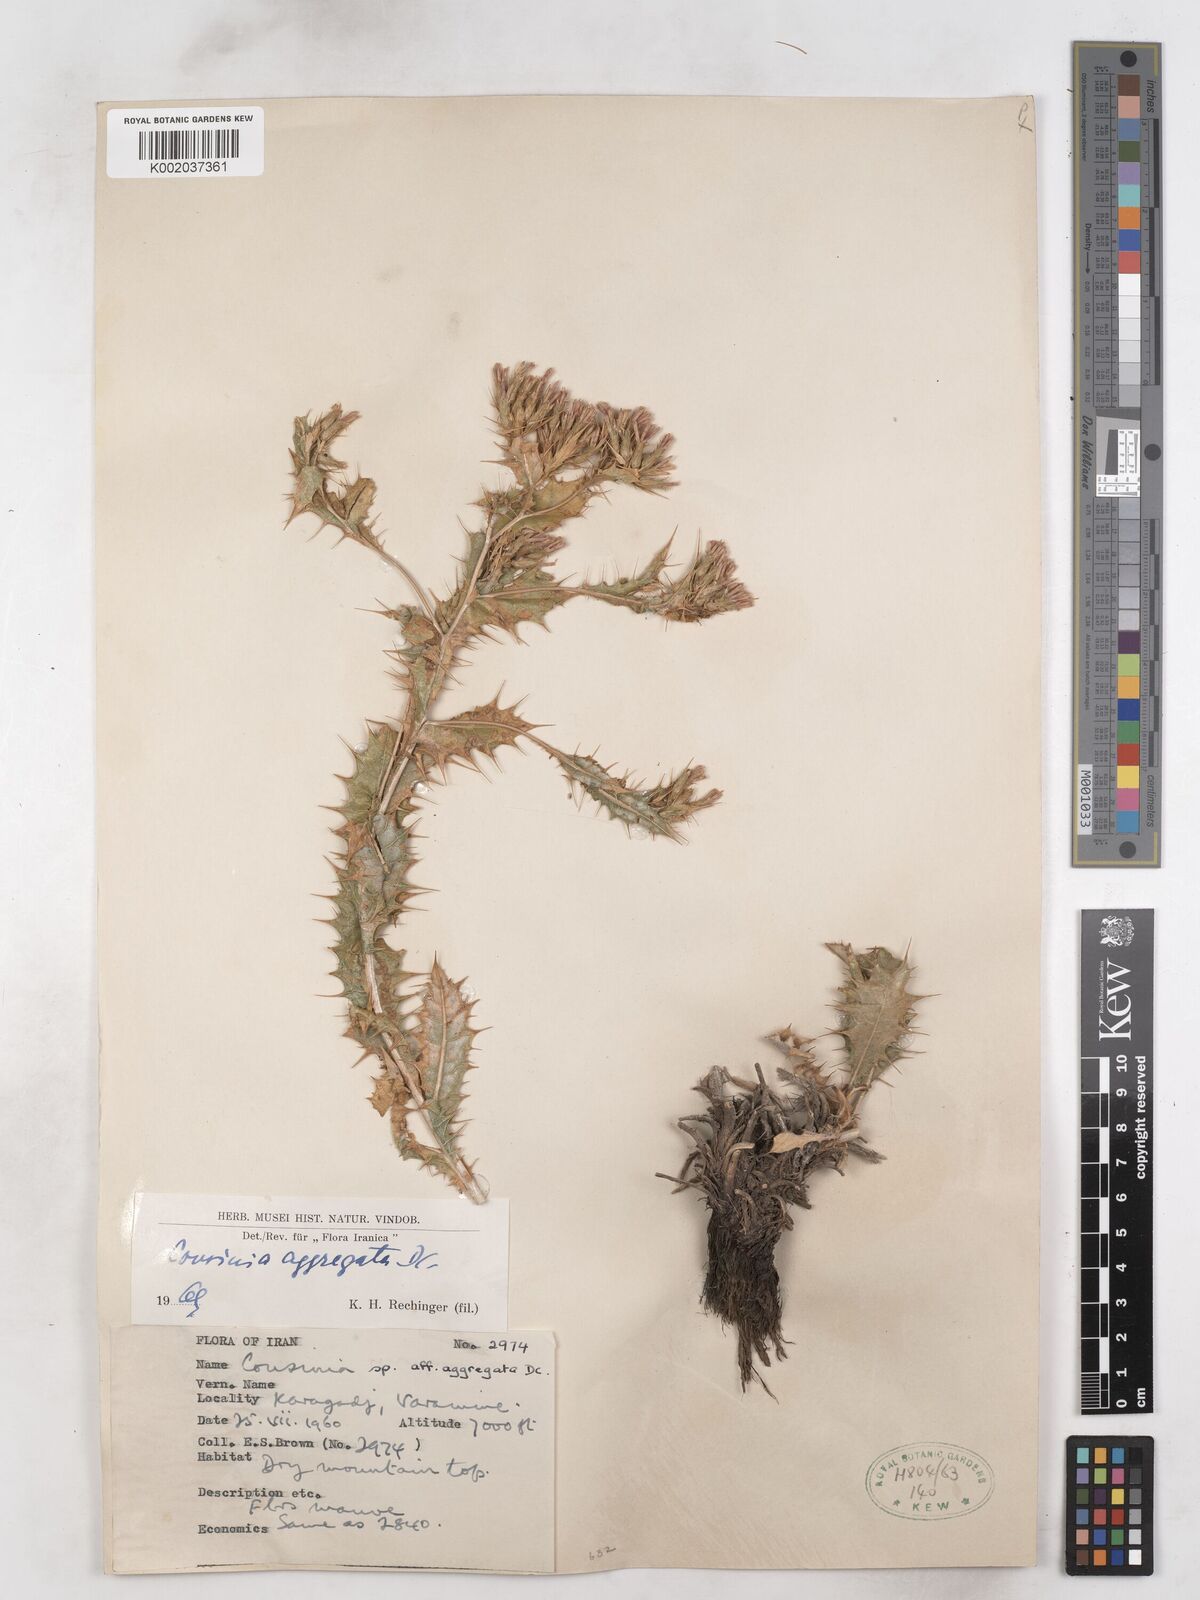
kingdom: Plantae
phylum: Tracheophyta
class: Magnoliopsida
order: Asterales
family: Asteraceae
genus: Cousinia
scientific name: Cousinia aggregata
